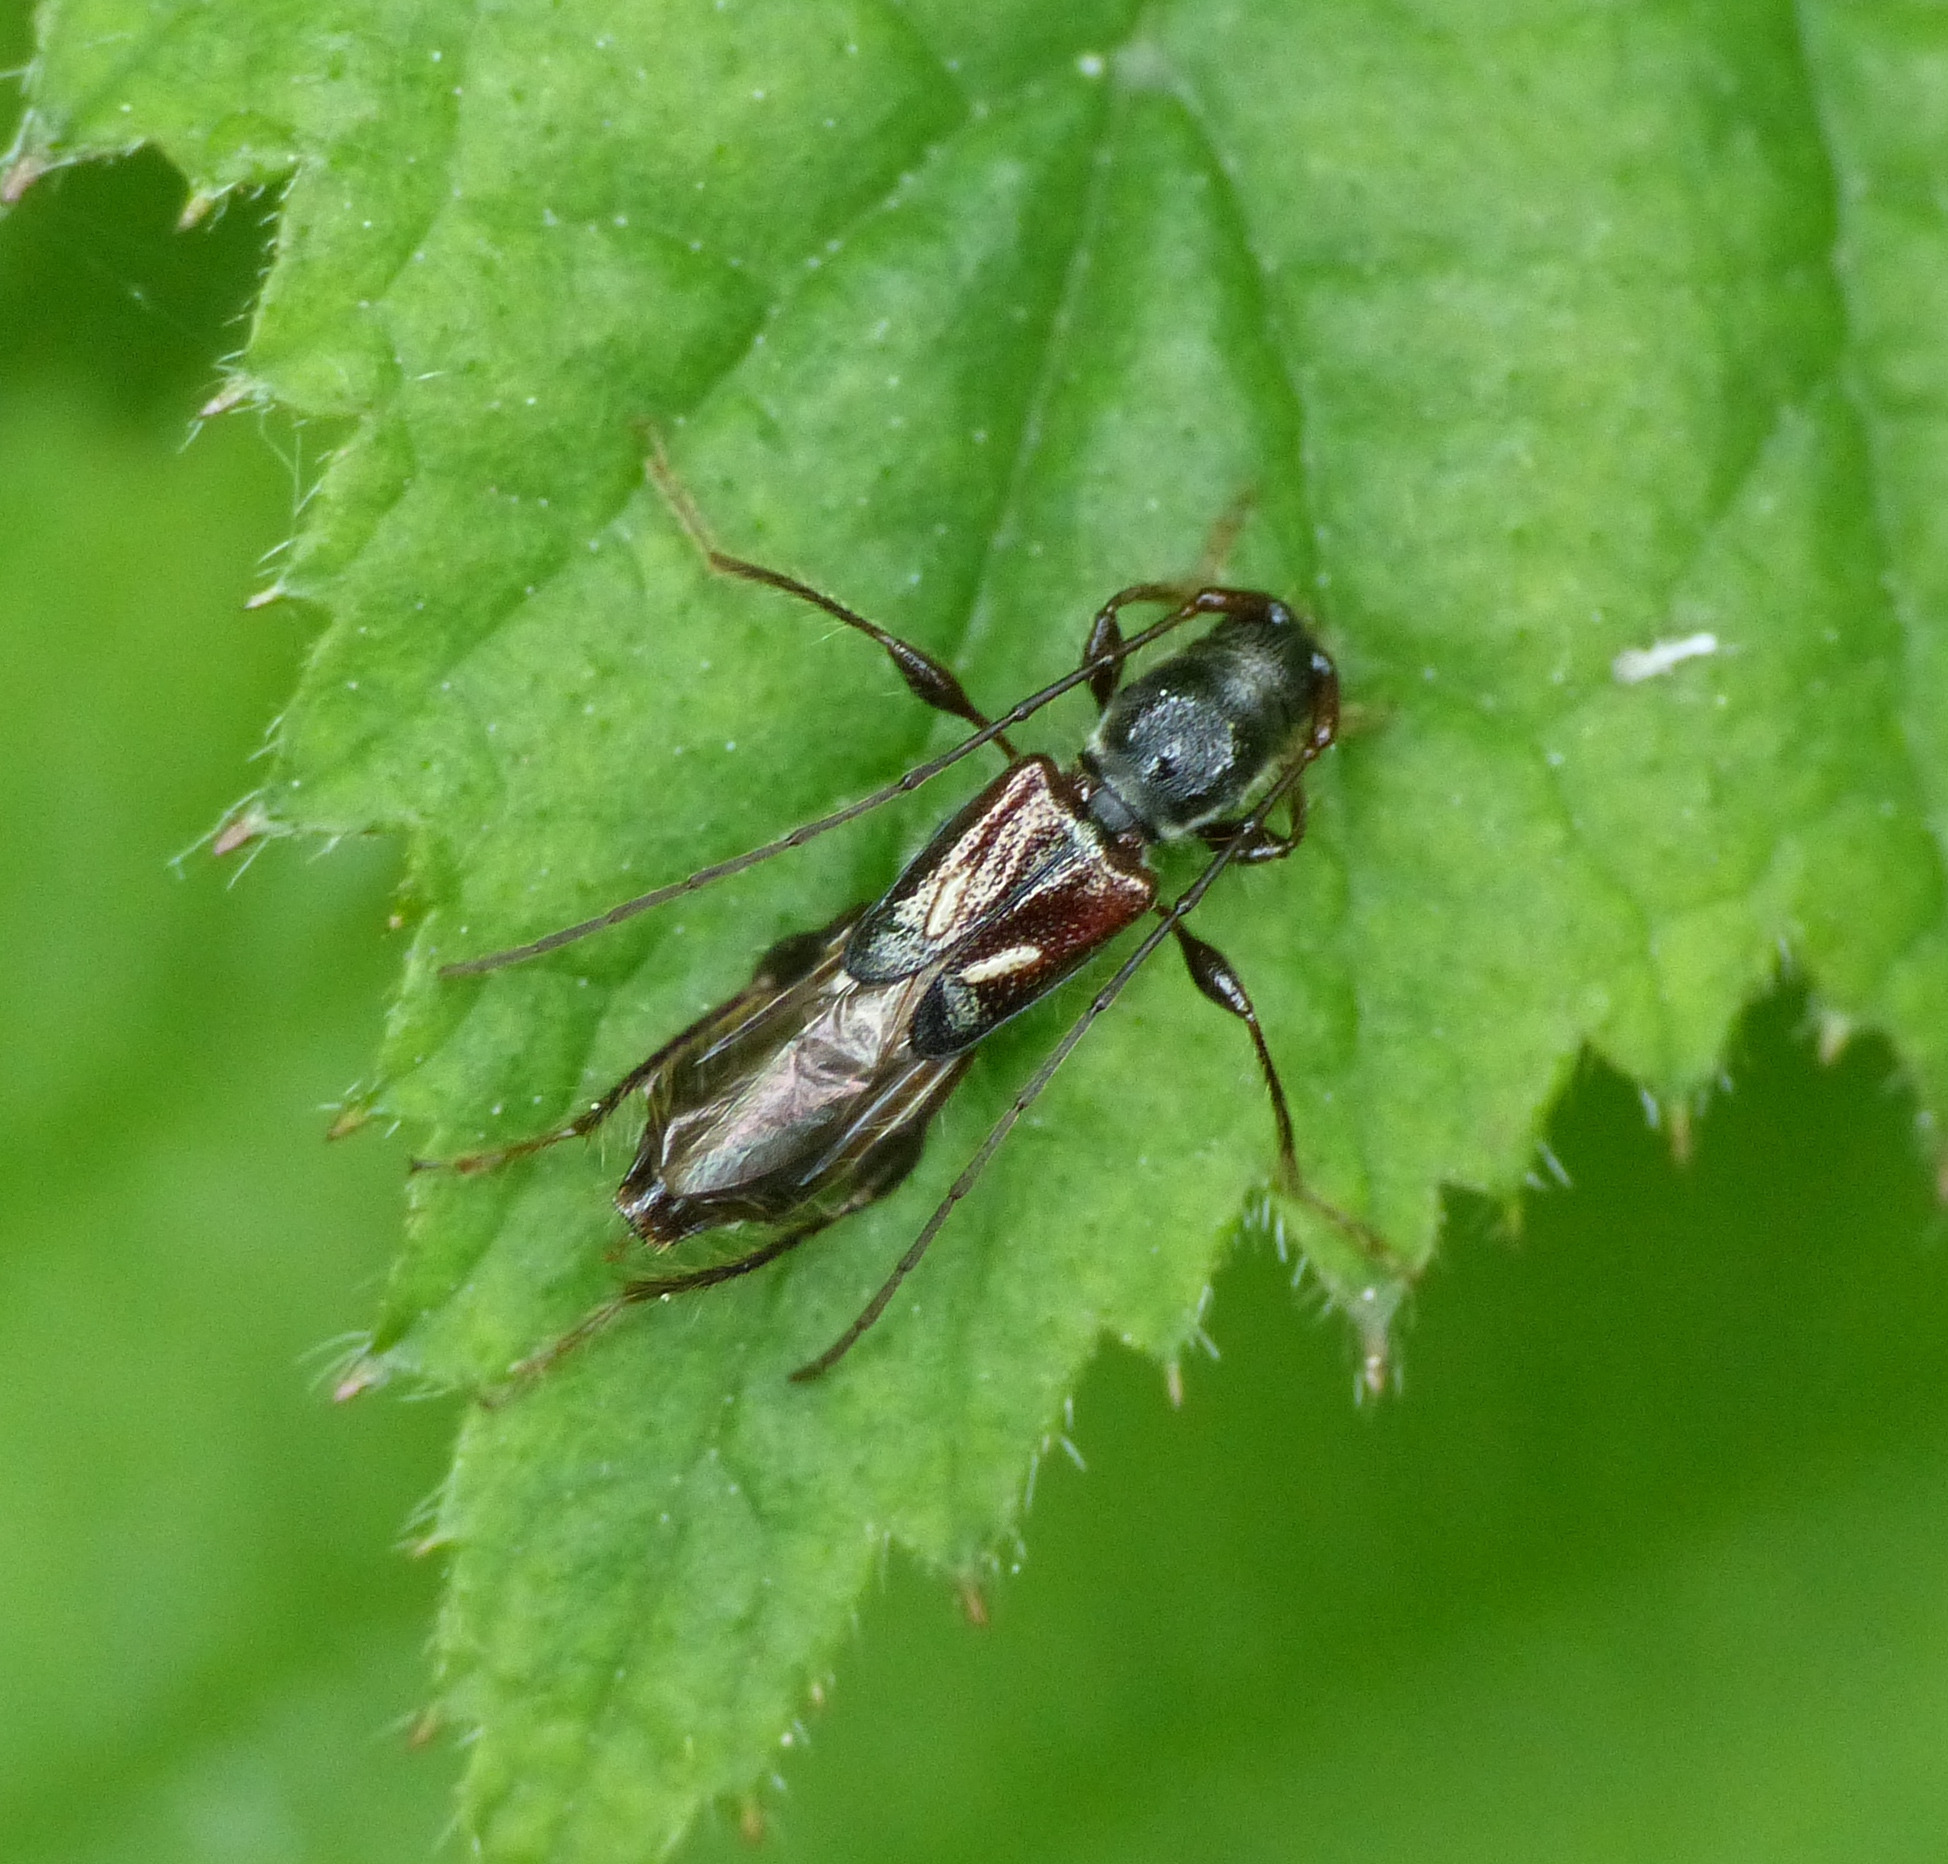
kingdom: Animalia
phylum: Arthropoda
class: Insecta
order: Coleoptera
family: Cerambycidae
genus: Molorchus
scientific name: Molorchus minor
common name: Fluebuk
